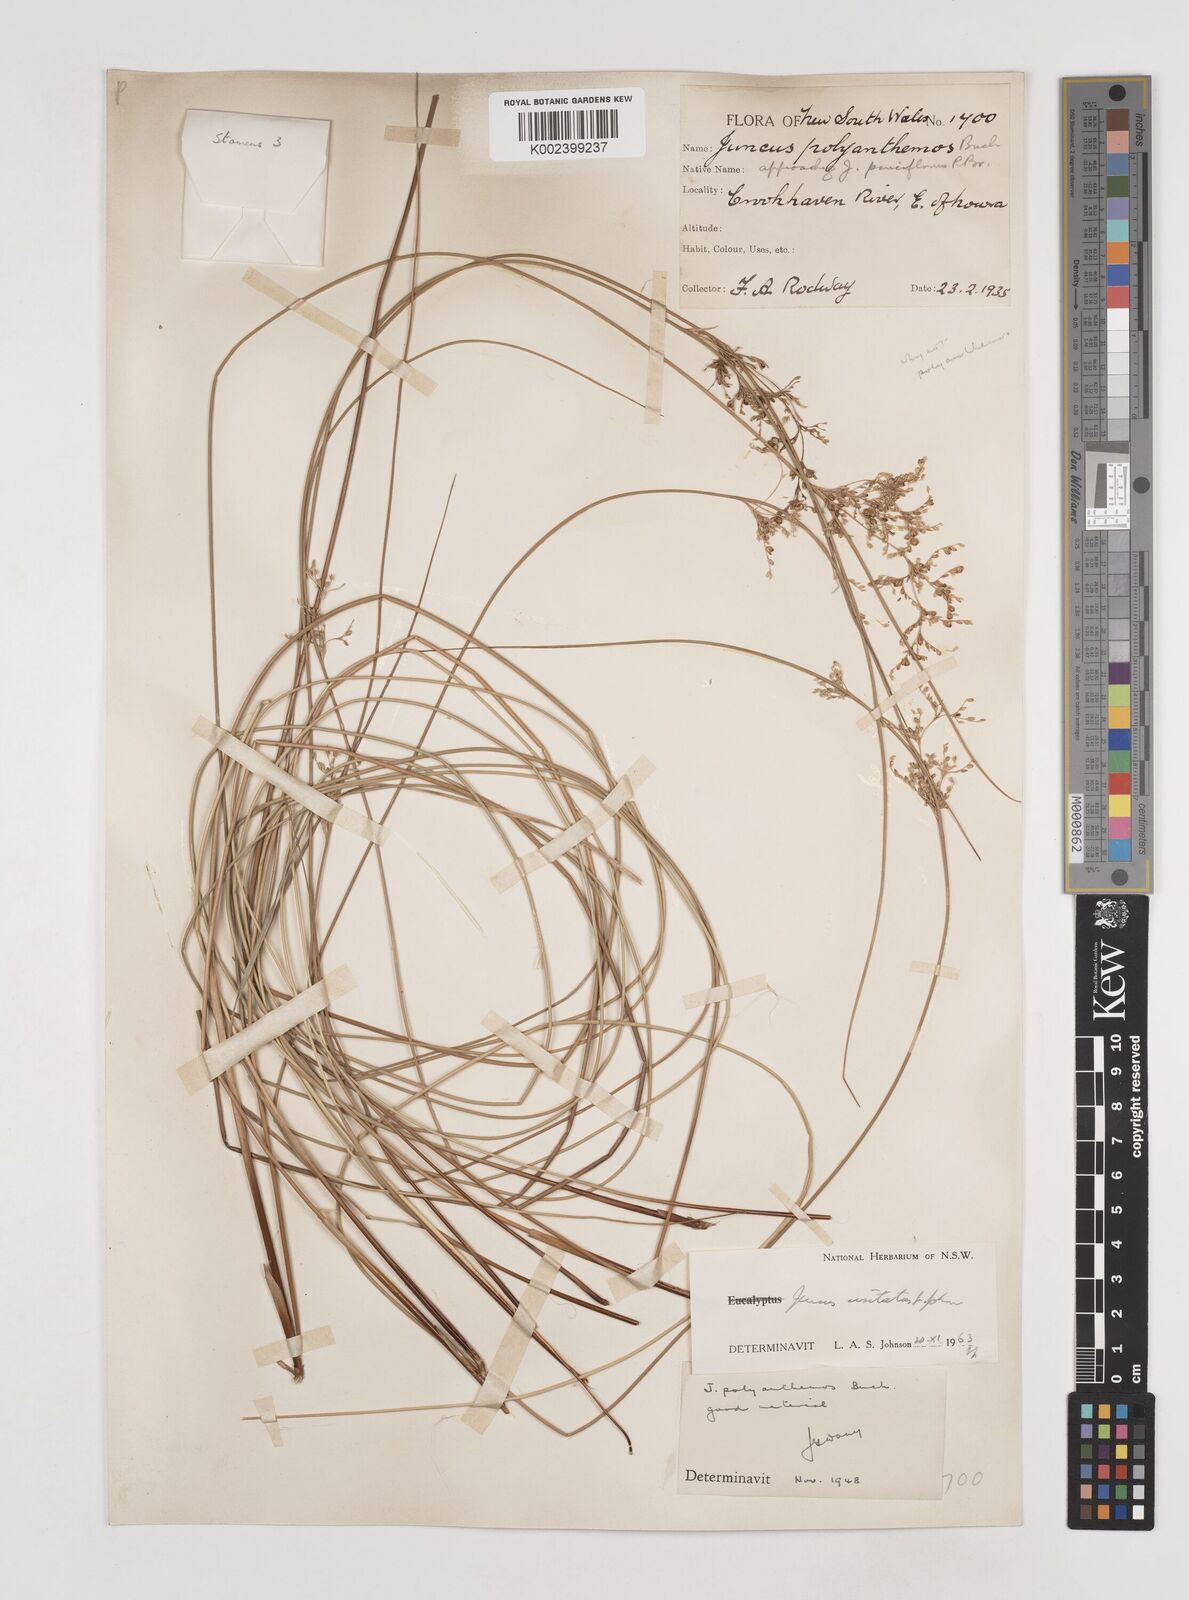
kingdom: Plantae
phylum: Tracheophyta
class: Liliopsida
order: Poales
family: Juncaceae
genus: Juncus
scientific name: Juncus usitatus
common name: Rush
